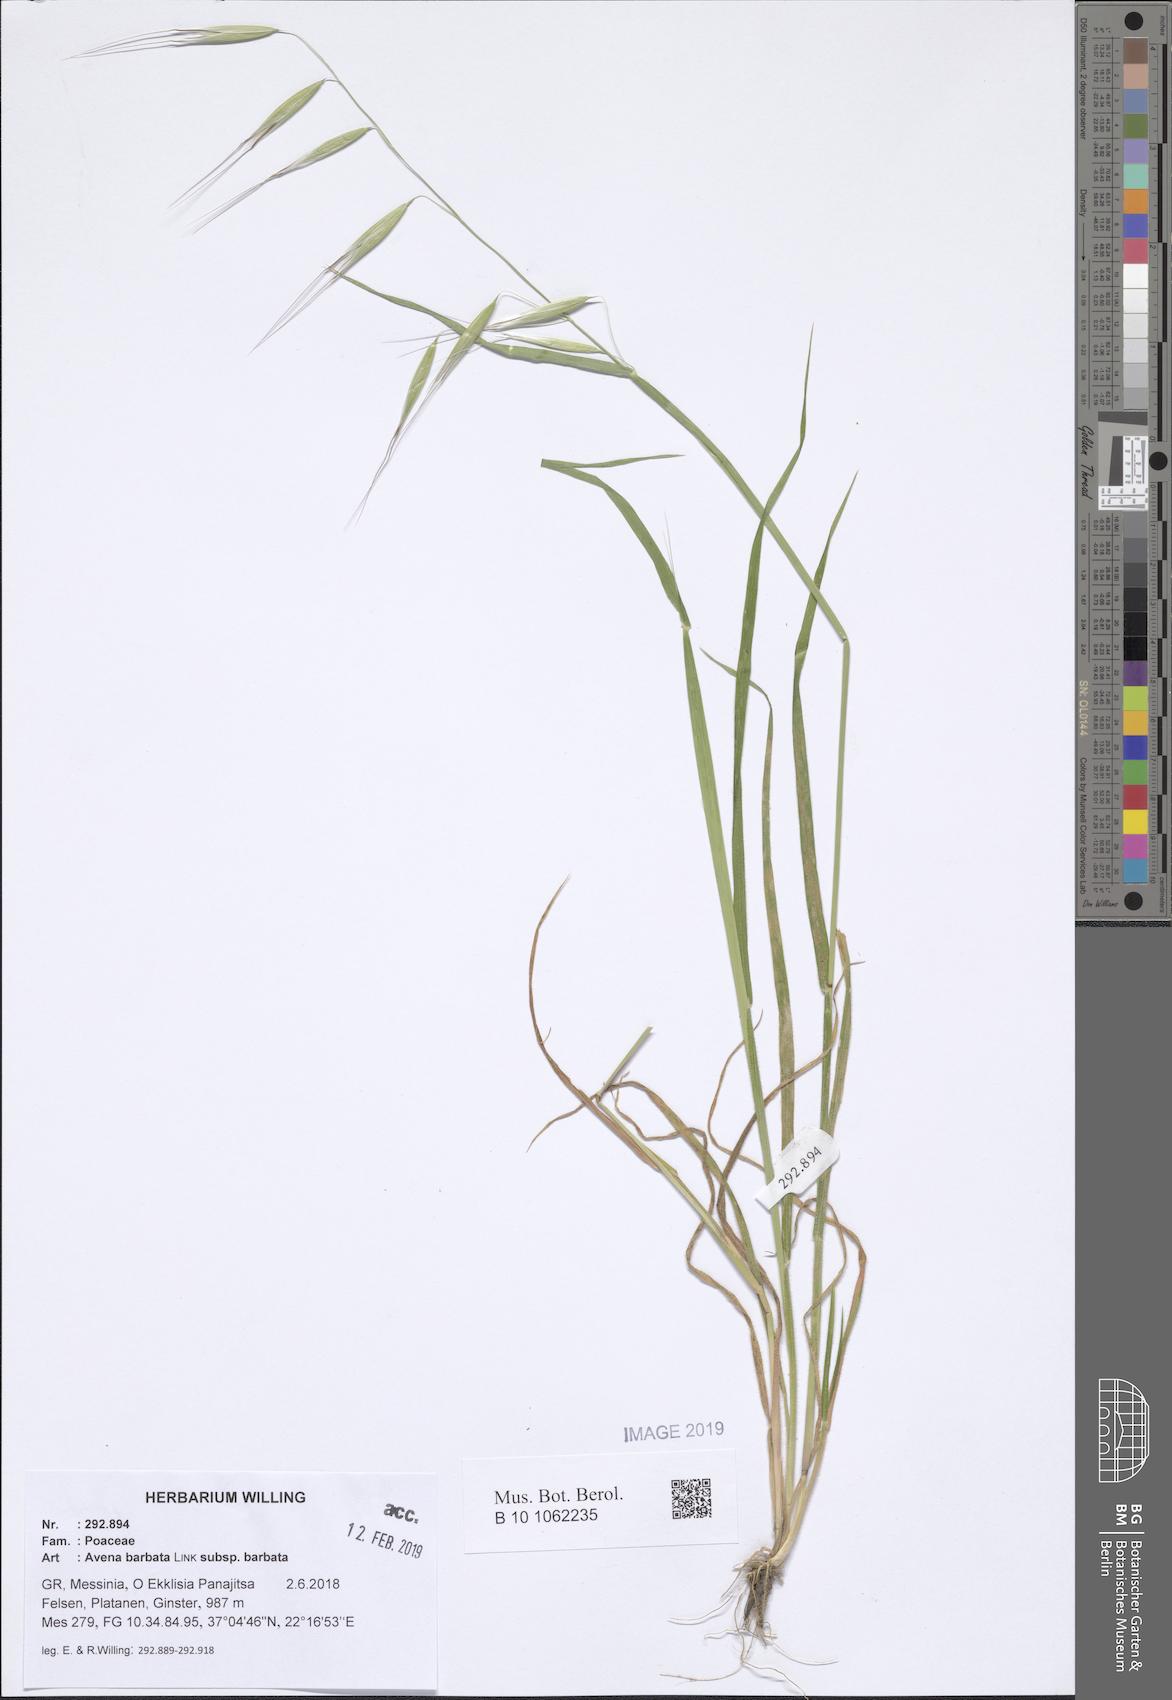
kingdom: Plantae
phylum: Tracheophyta
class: Liliopsida
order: Poales
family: Poaceae
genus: Avena
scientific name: Avena barbata
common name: Slender oat
